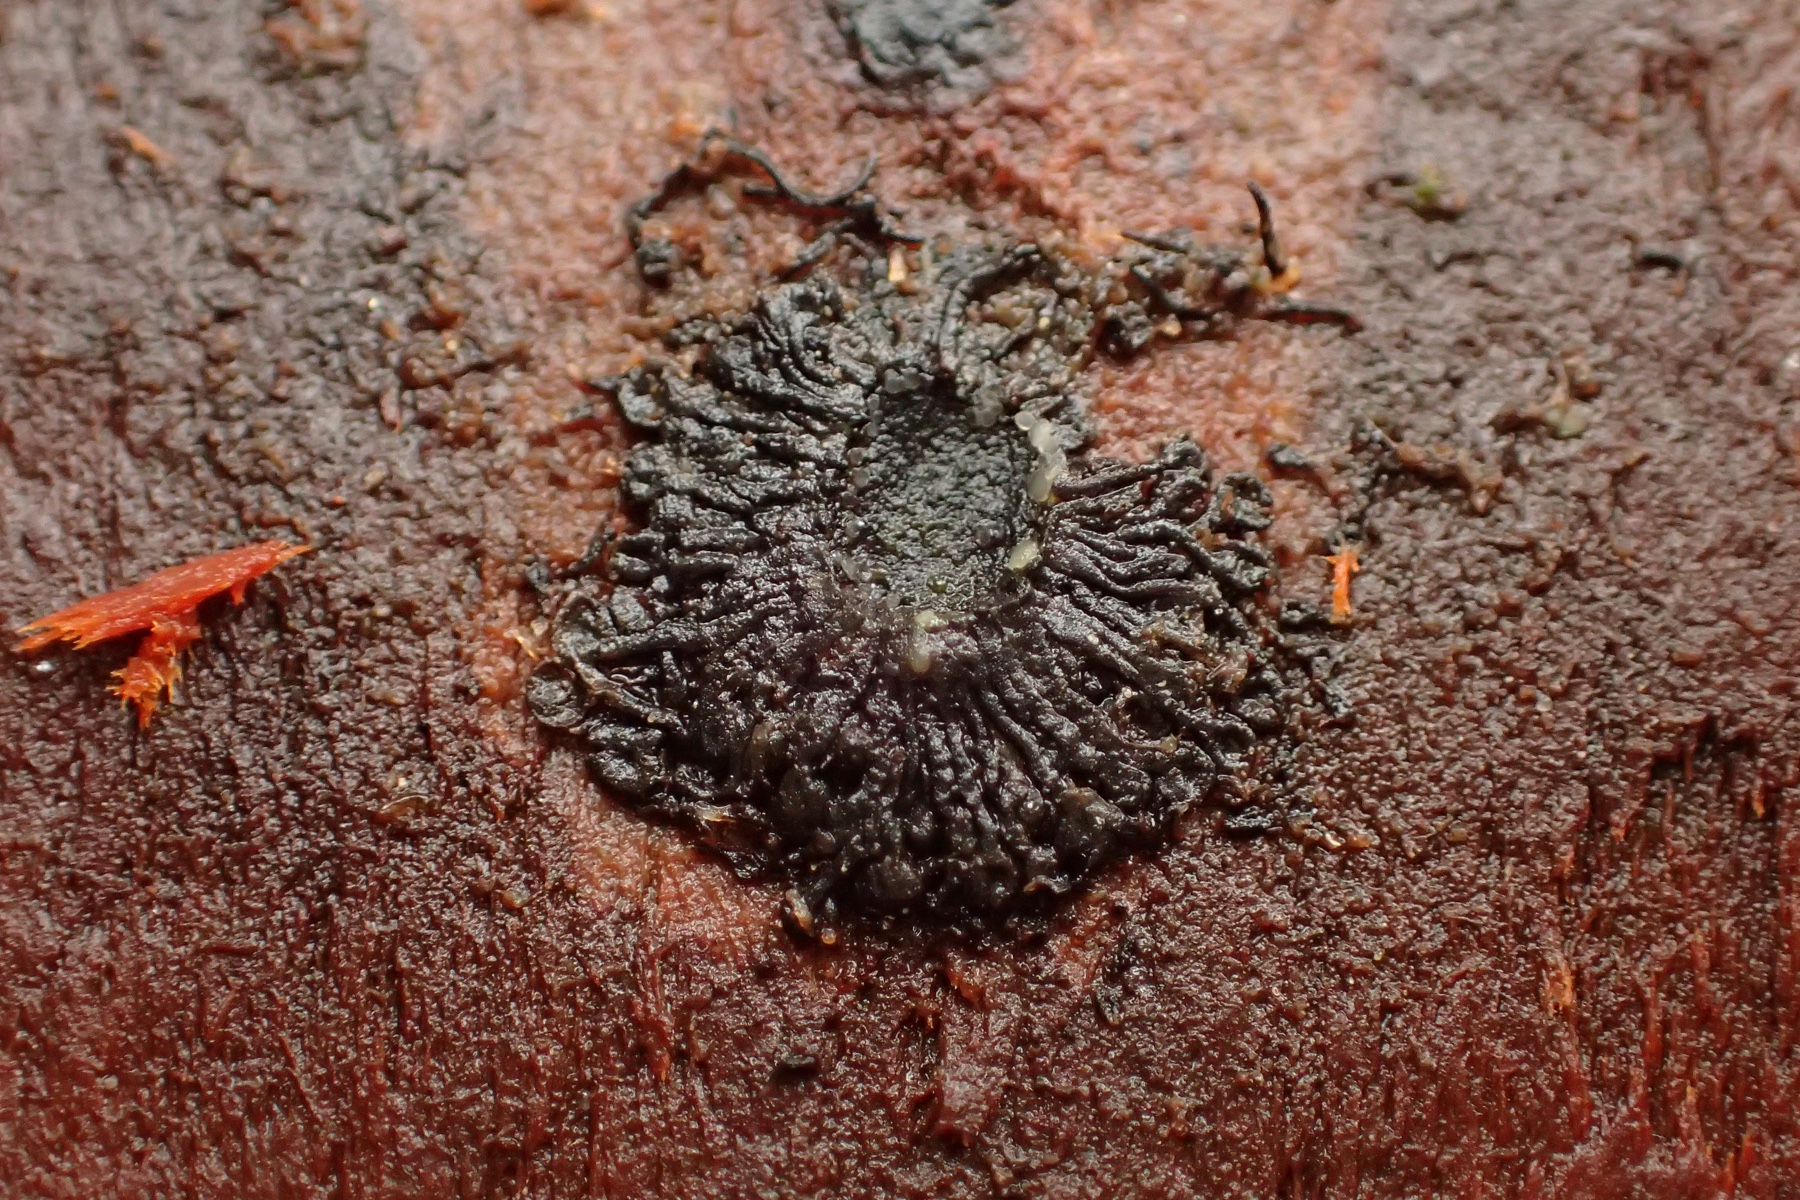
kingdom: Fungi
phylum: Ascomycota
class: Sordariomycetes
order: Calosphaeriales
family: Calosphaeriaceae
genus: Calosphaeria
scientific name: Calosphaeria pulchella
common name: smuk slyngkerne
